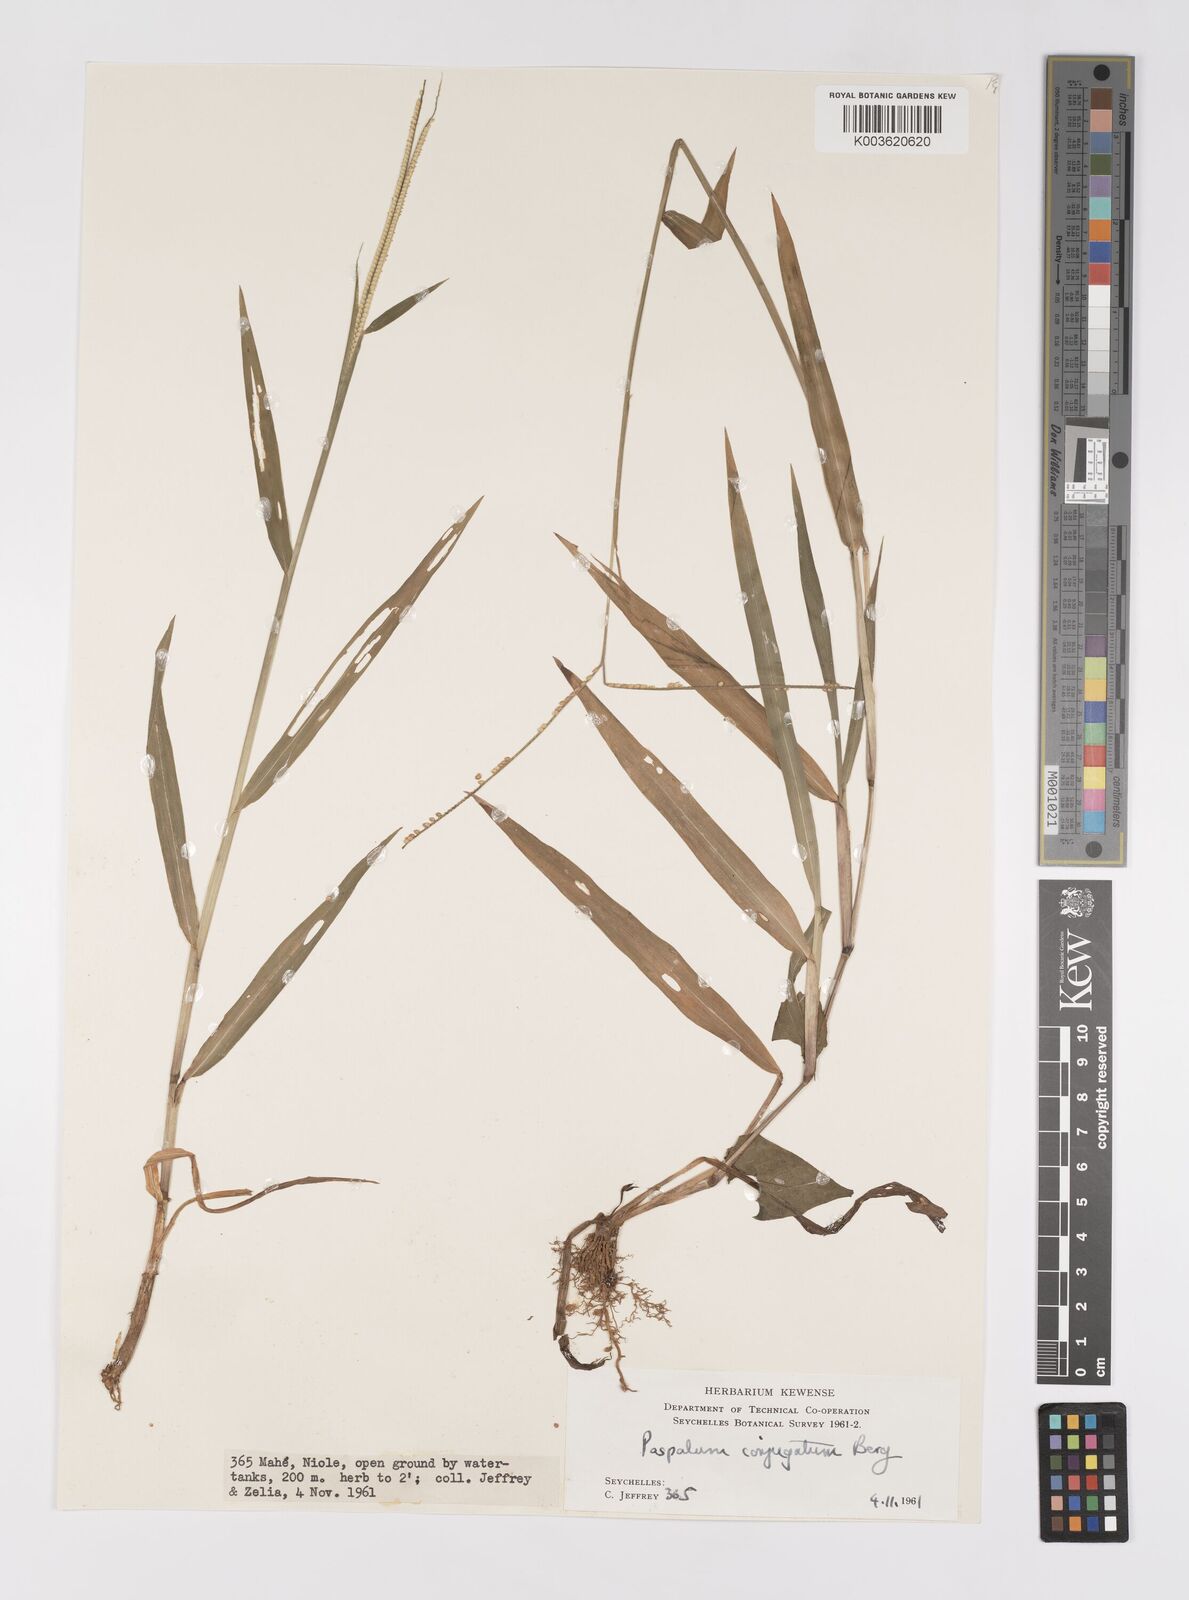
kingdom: Plantae
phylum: Tracheophyta
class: Liliopsida
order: Poales
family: Poaceae
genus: Paspalum
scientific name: Paspalum conjugatum
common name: Hilograss
